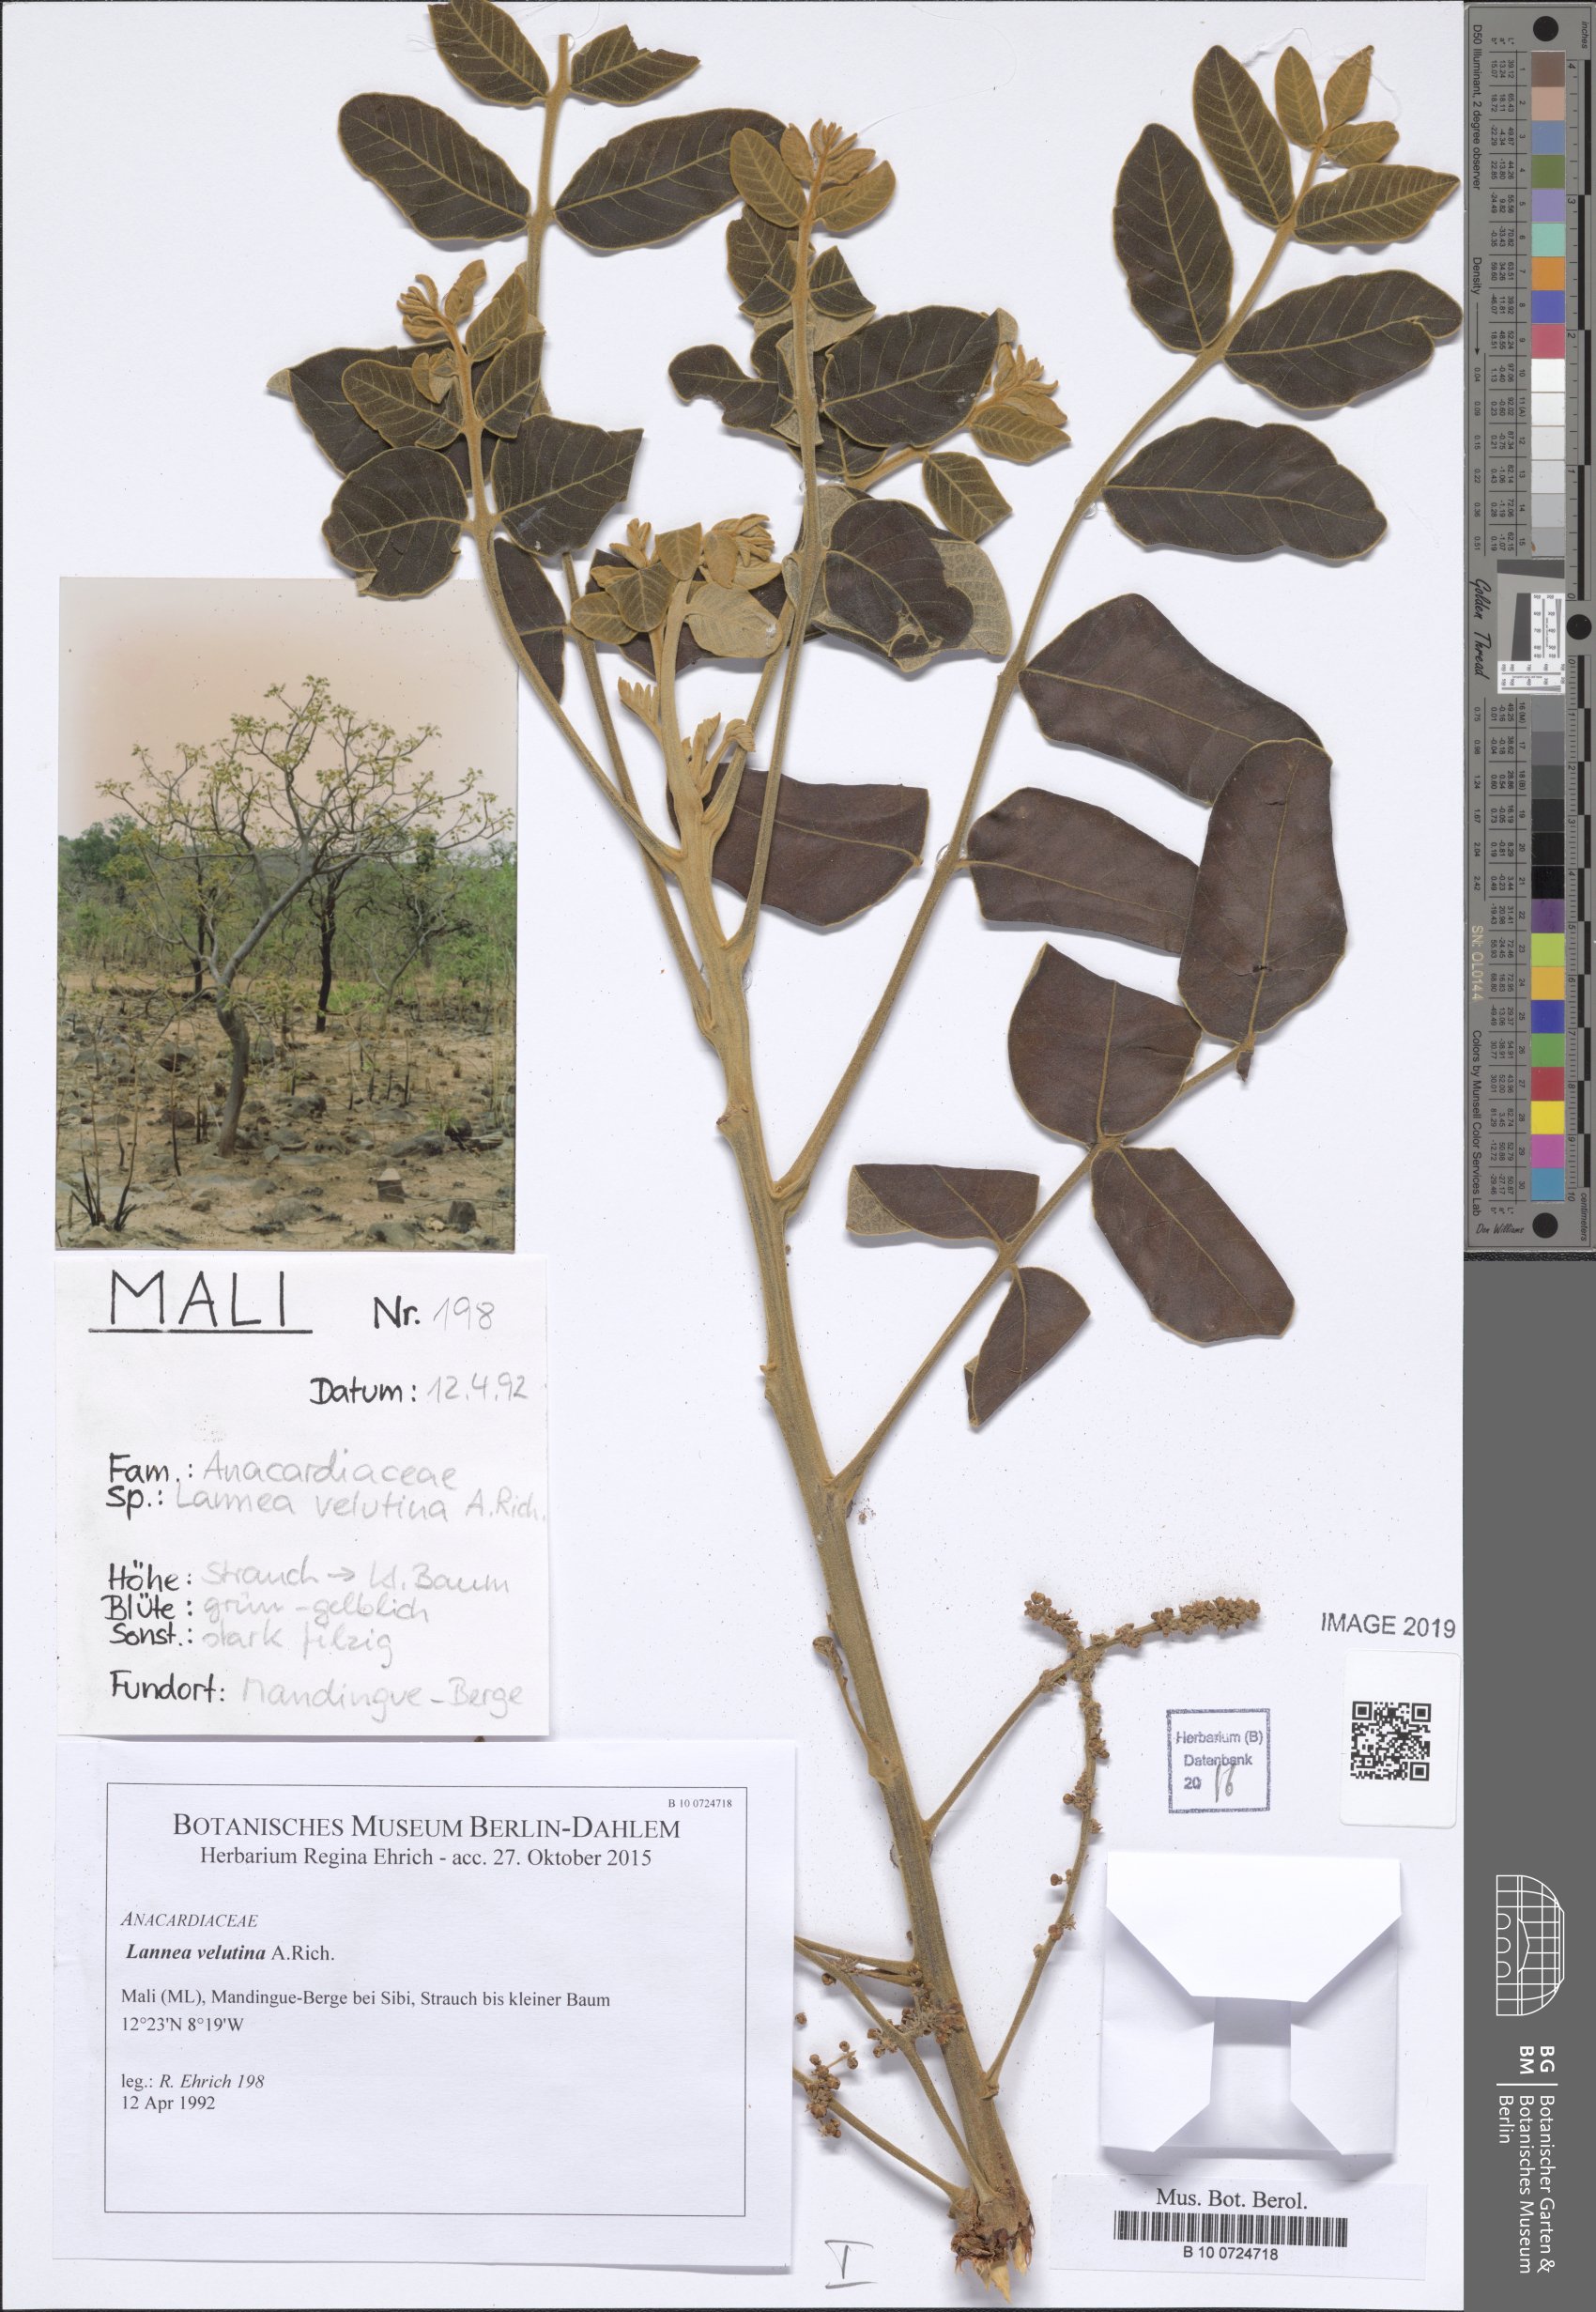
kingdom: Plantae
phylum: Tracheophyta
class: Magnoliopsida
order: Sapindales
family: Anacardiaceae
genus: Lannea
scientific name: Lannea velutina
